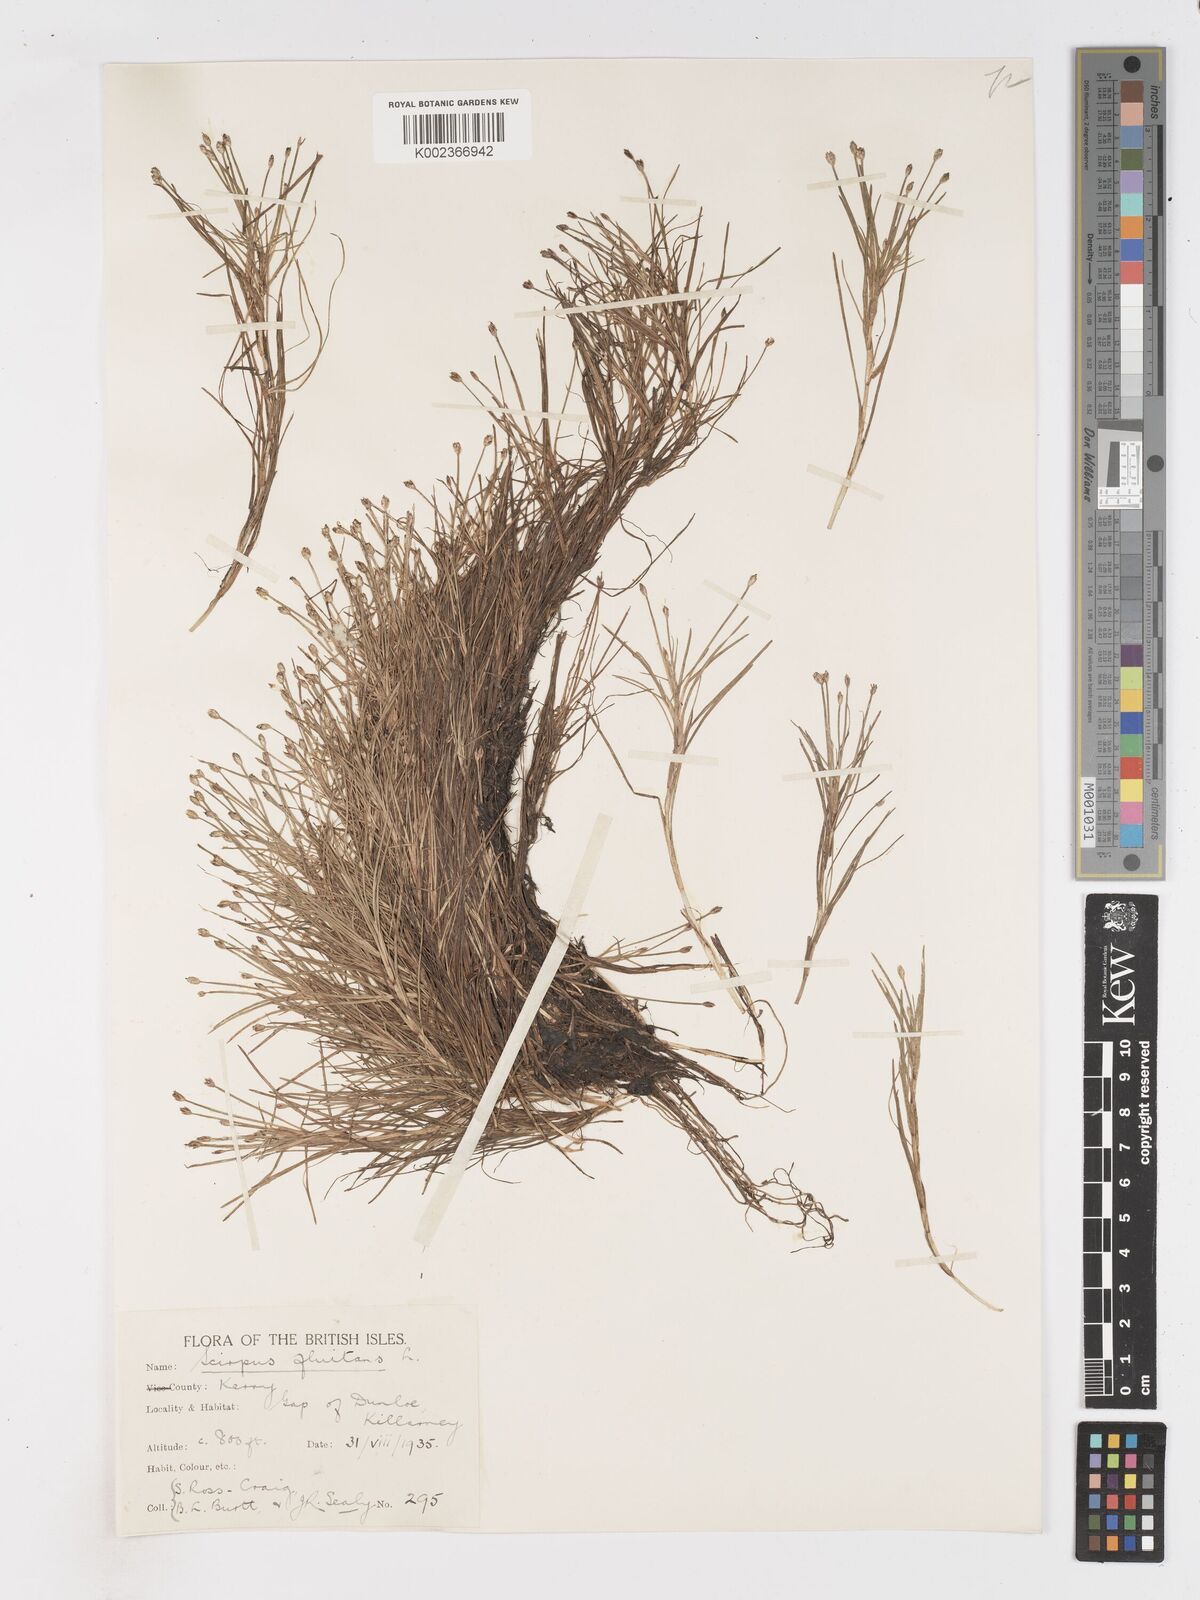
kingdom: Plantae
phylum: Tracheophyta
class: Liliopsida
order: Poales
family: Cyperaceae
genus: Isolepis
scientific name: Isolepis fluitans
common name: Floating club-rush
